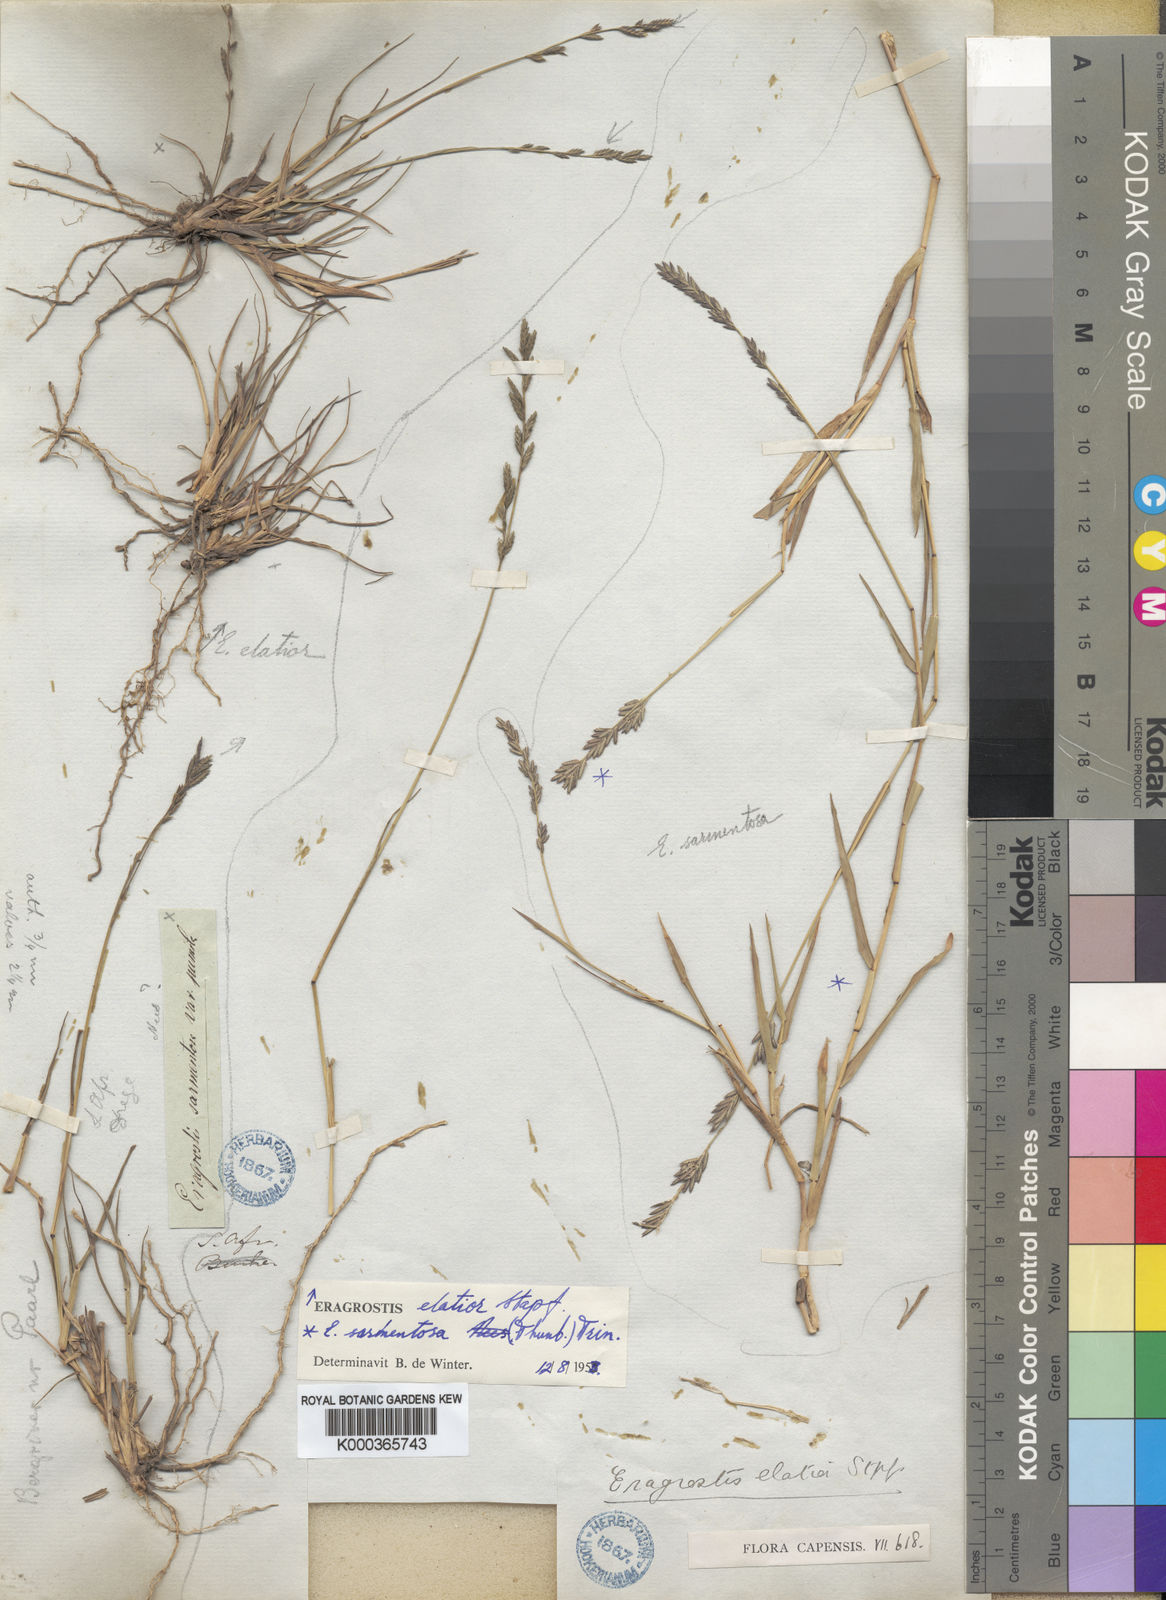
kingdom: Plantae
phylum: Tracheophyta
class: Liliopsida
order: Poales
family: Poaceae
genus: Eragrostis
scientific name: Eragrostis elatior
